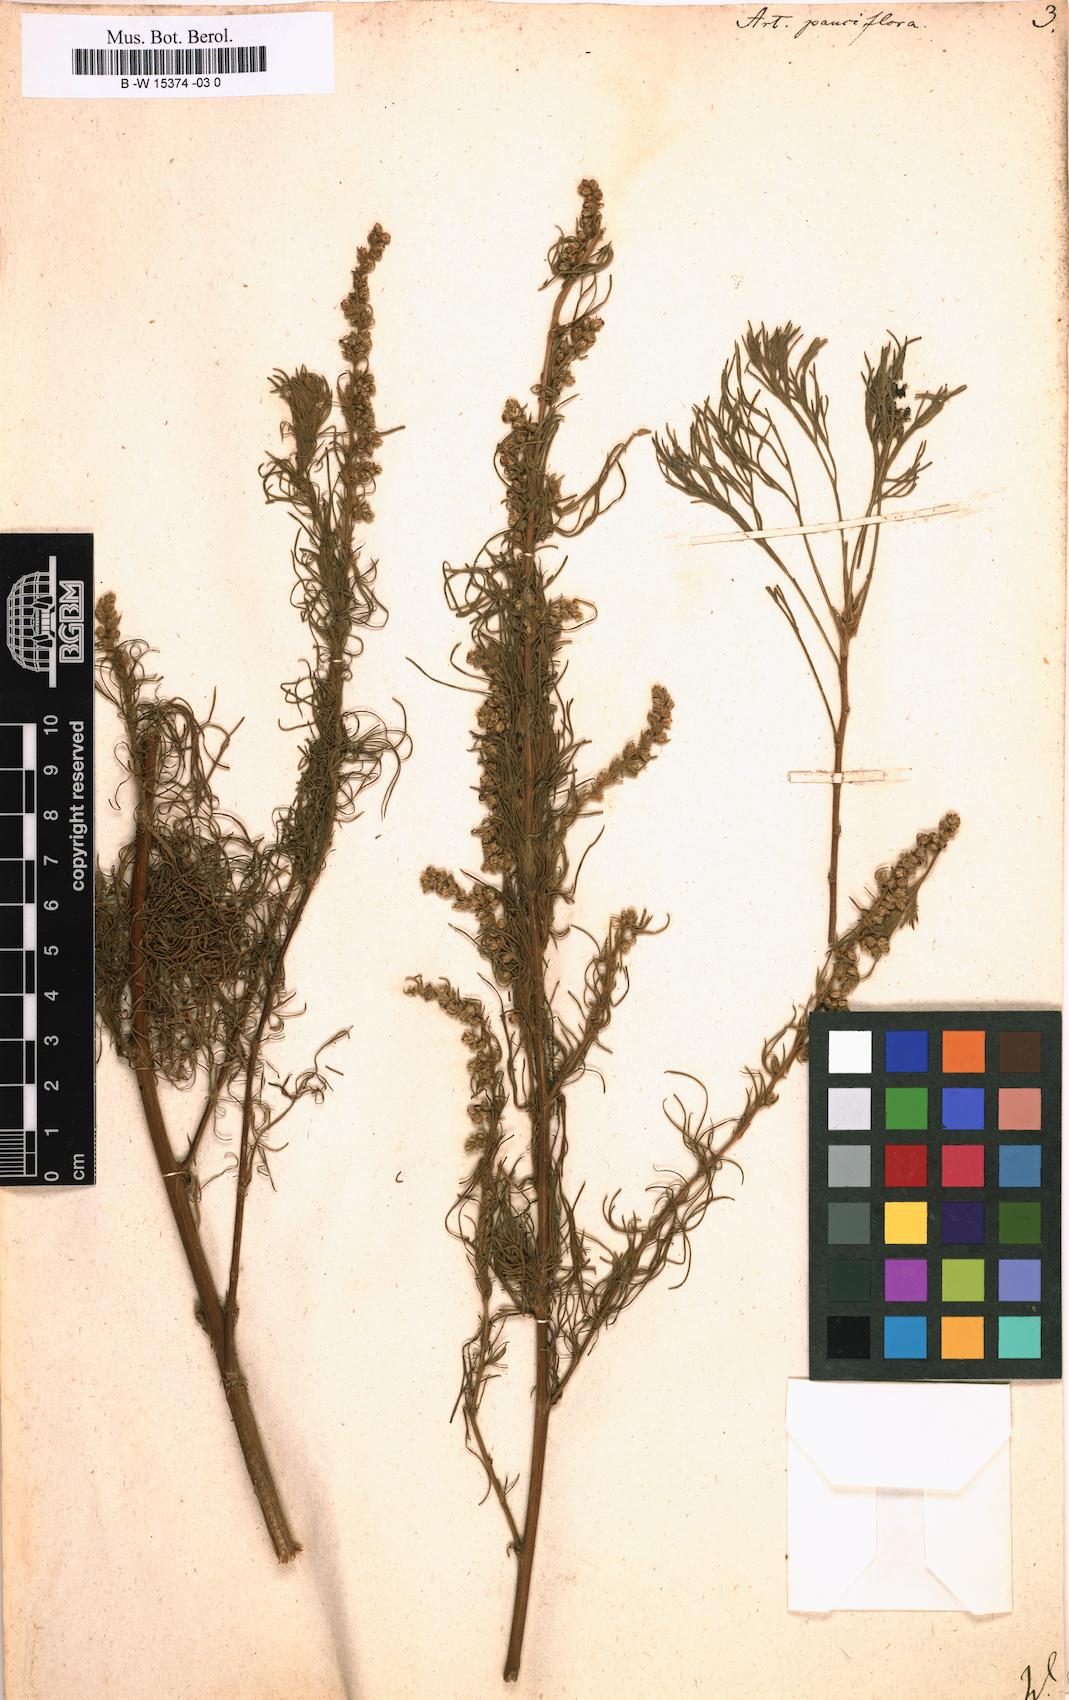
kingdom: Plantae
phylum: Tracheophyta
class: Magnoliopsida
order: Asterales
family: Asteraceae
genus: Artemisia
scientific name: Artemisia pauciflora
